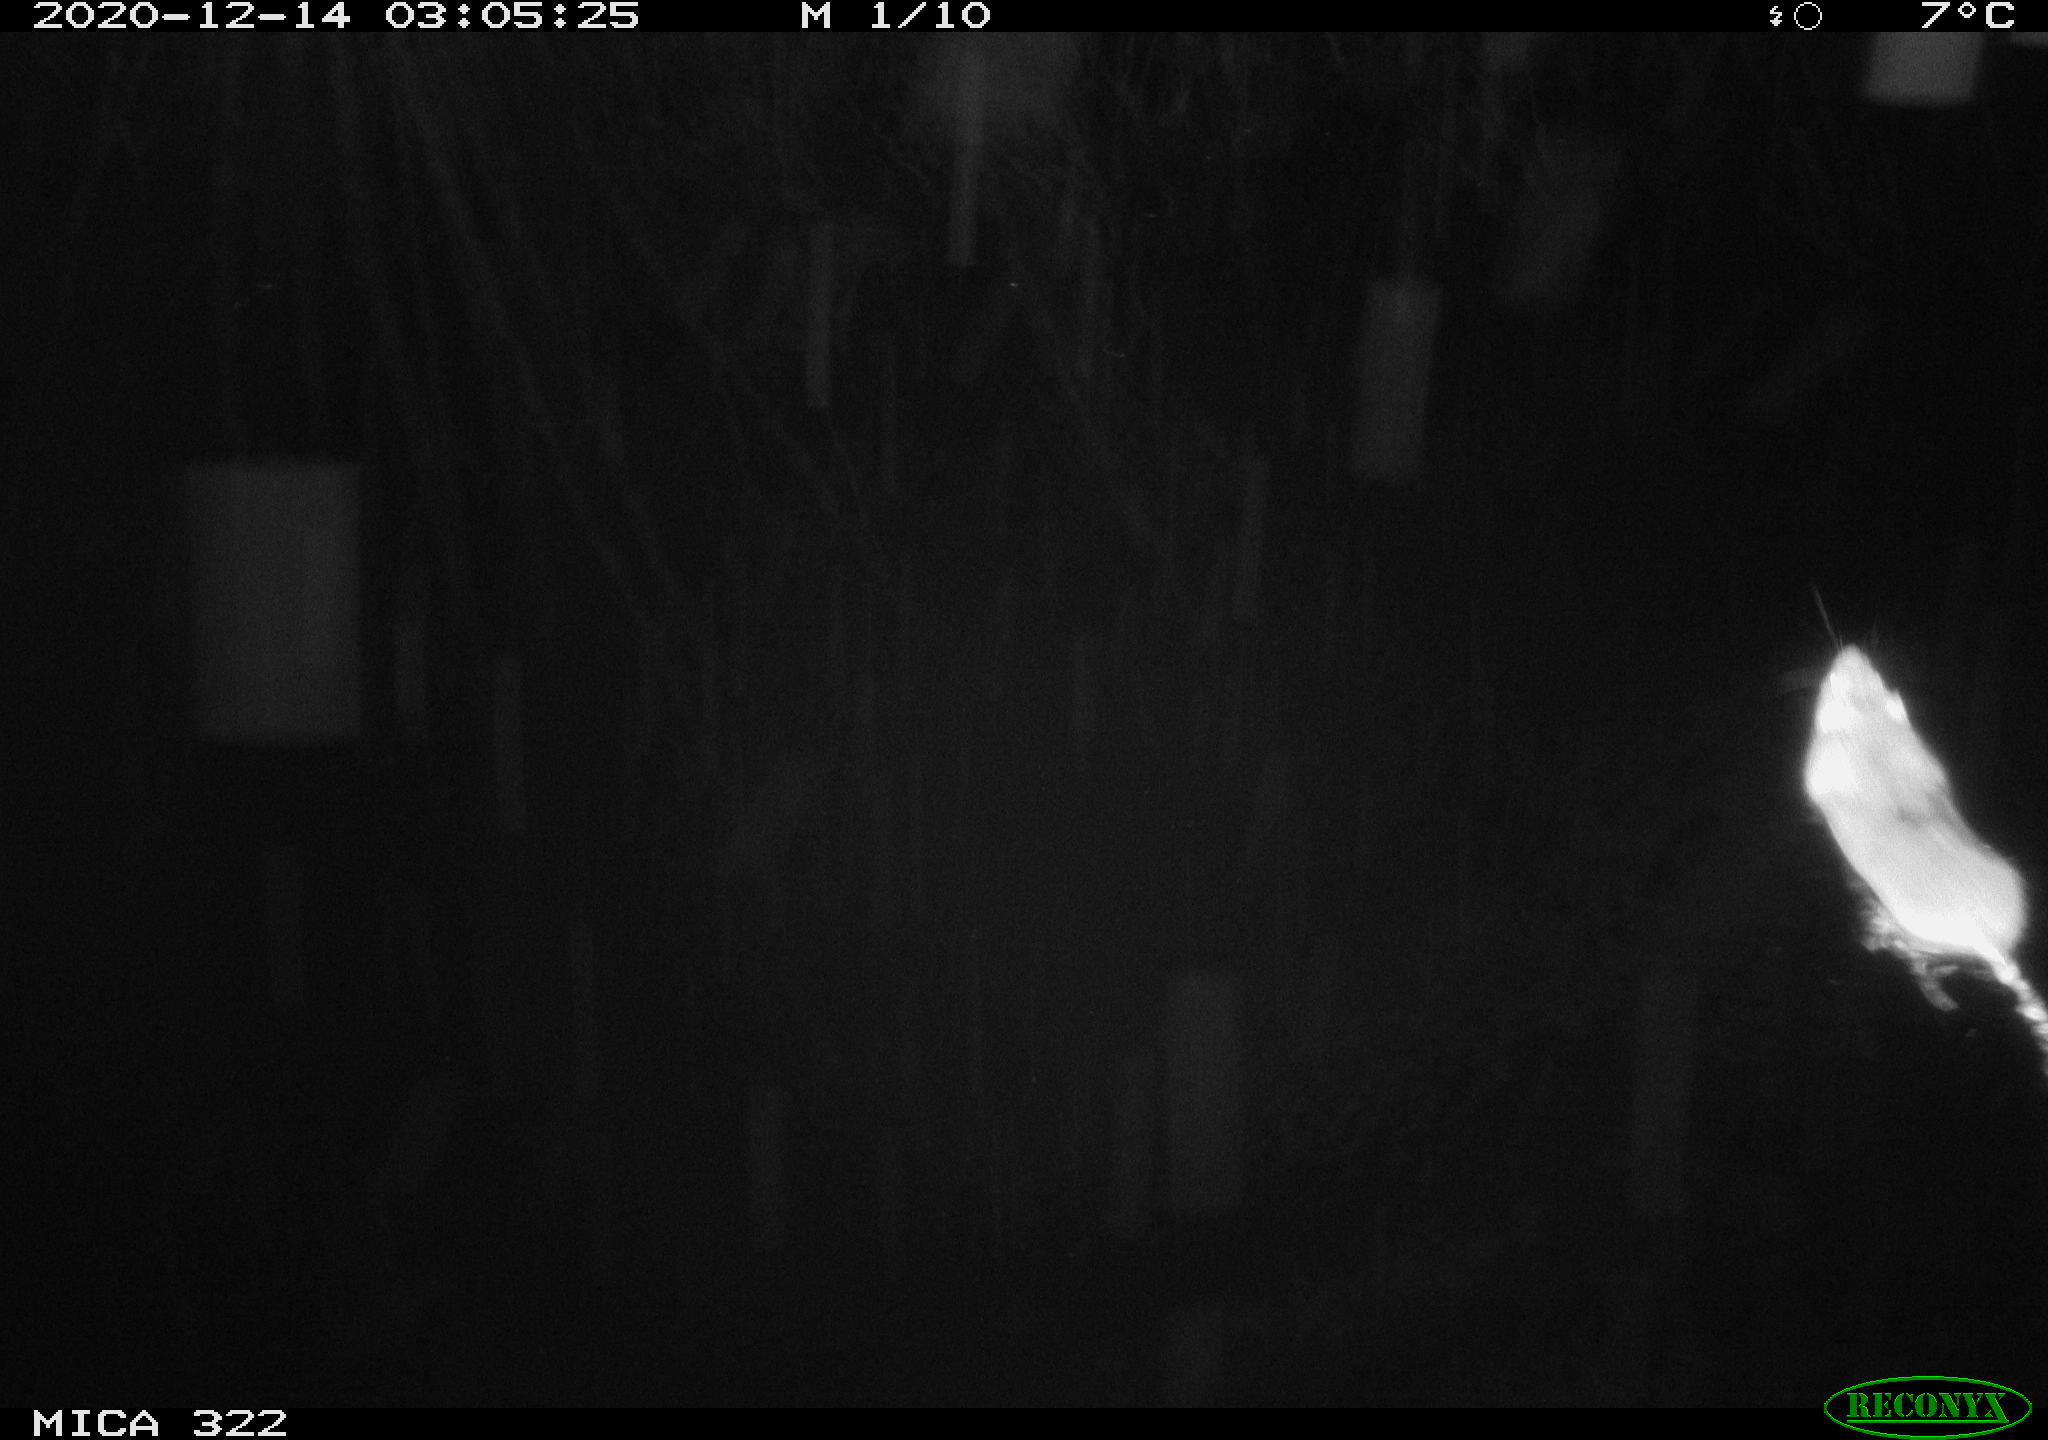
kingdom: Animalia
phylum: Chordata
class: Mammalia
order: Rodentia
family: Muridae
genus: Rattus
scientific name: Rattus norvegicus
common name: Brown rat
